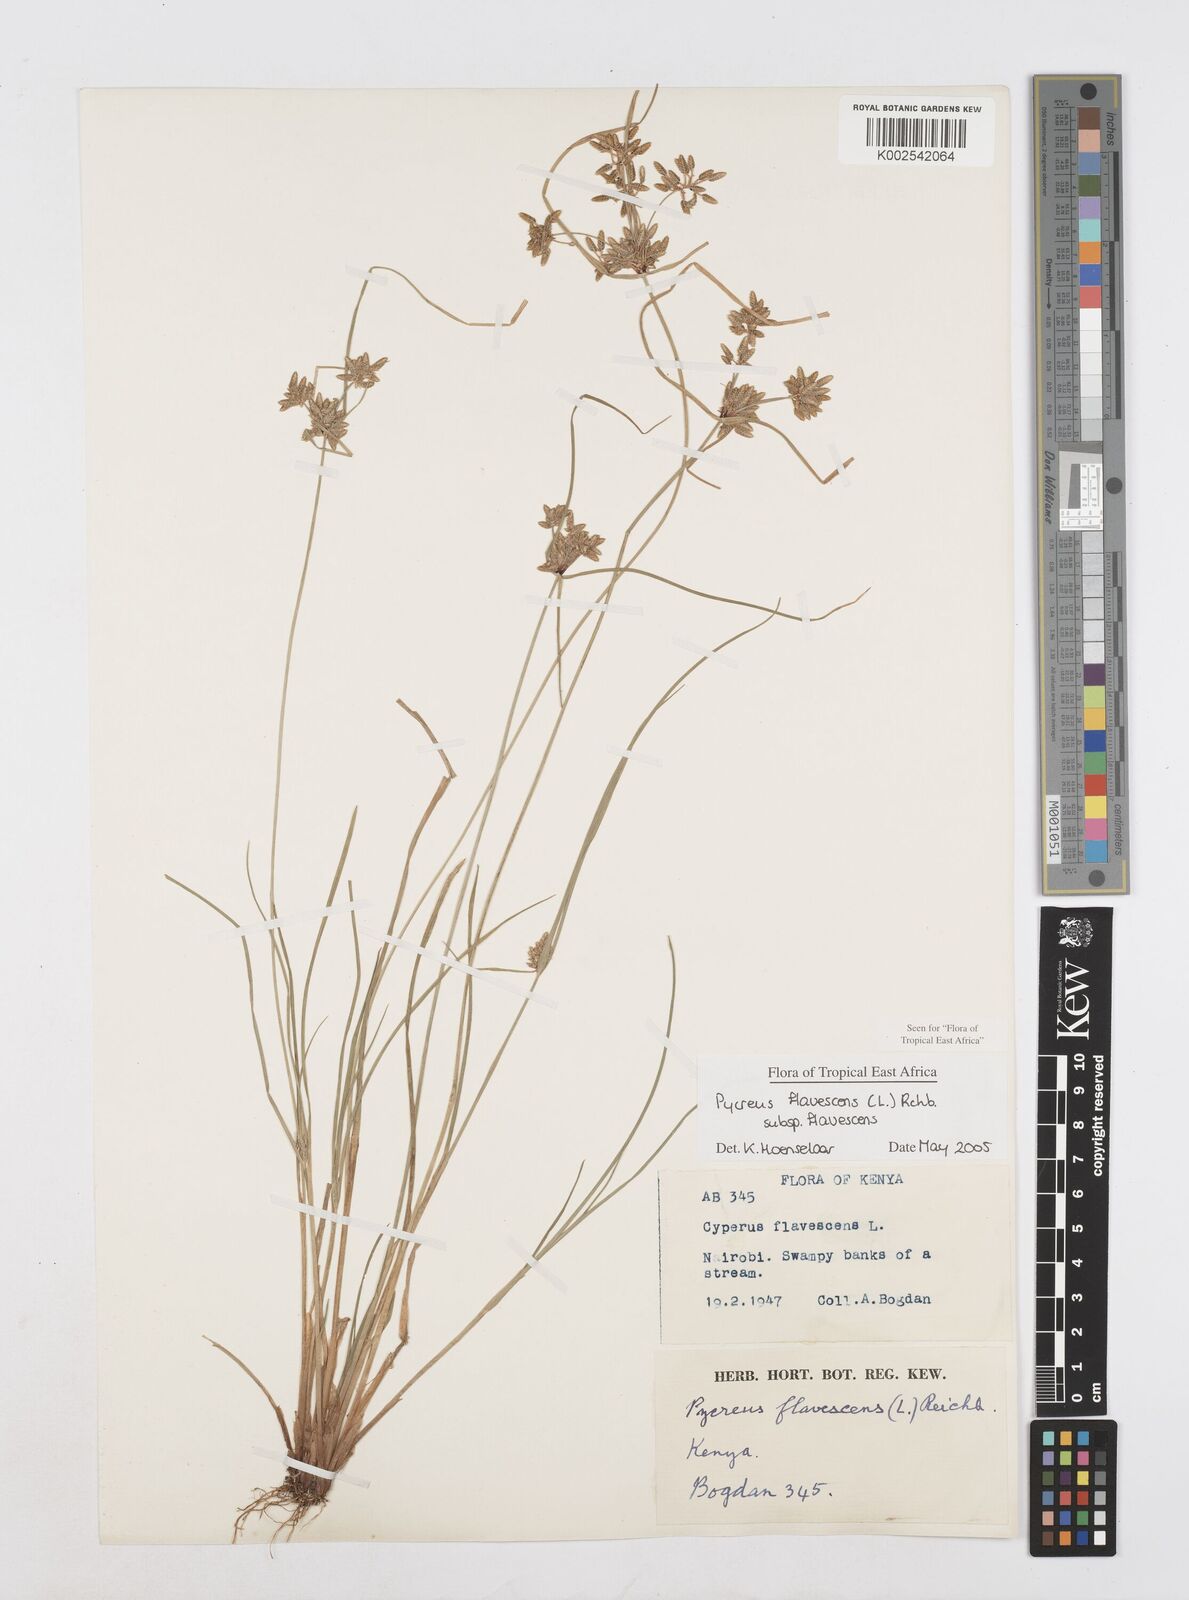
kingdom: Plantae
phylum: Tracheophyta
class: Liliopsida
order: Poales
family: Cyperaceae
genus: Cyperus
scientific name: Cyperus flavescens
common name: Yellow galingale
